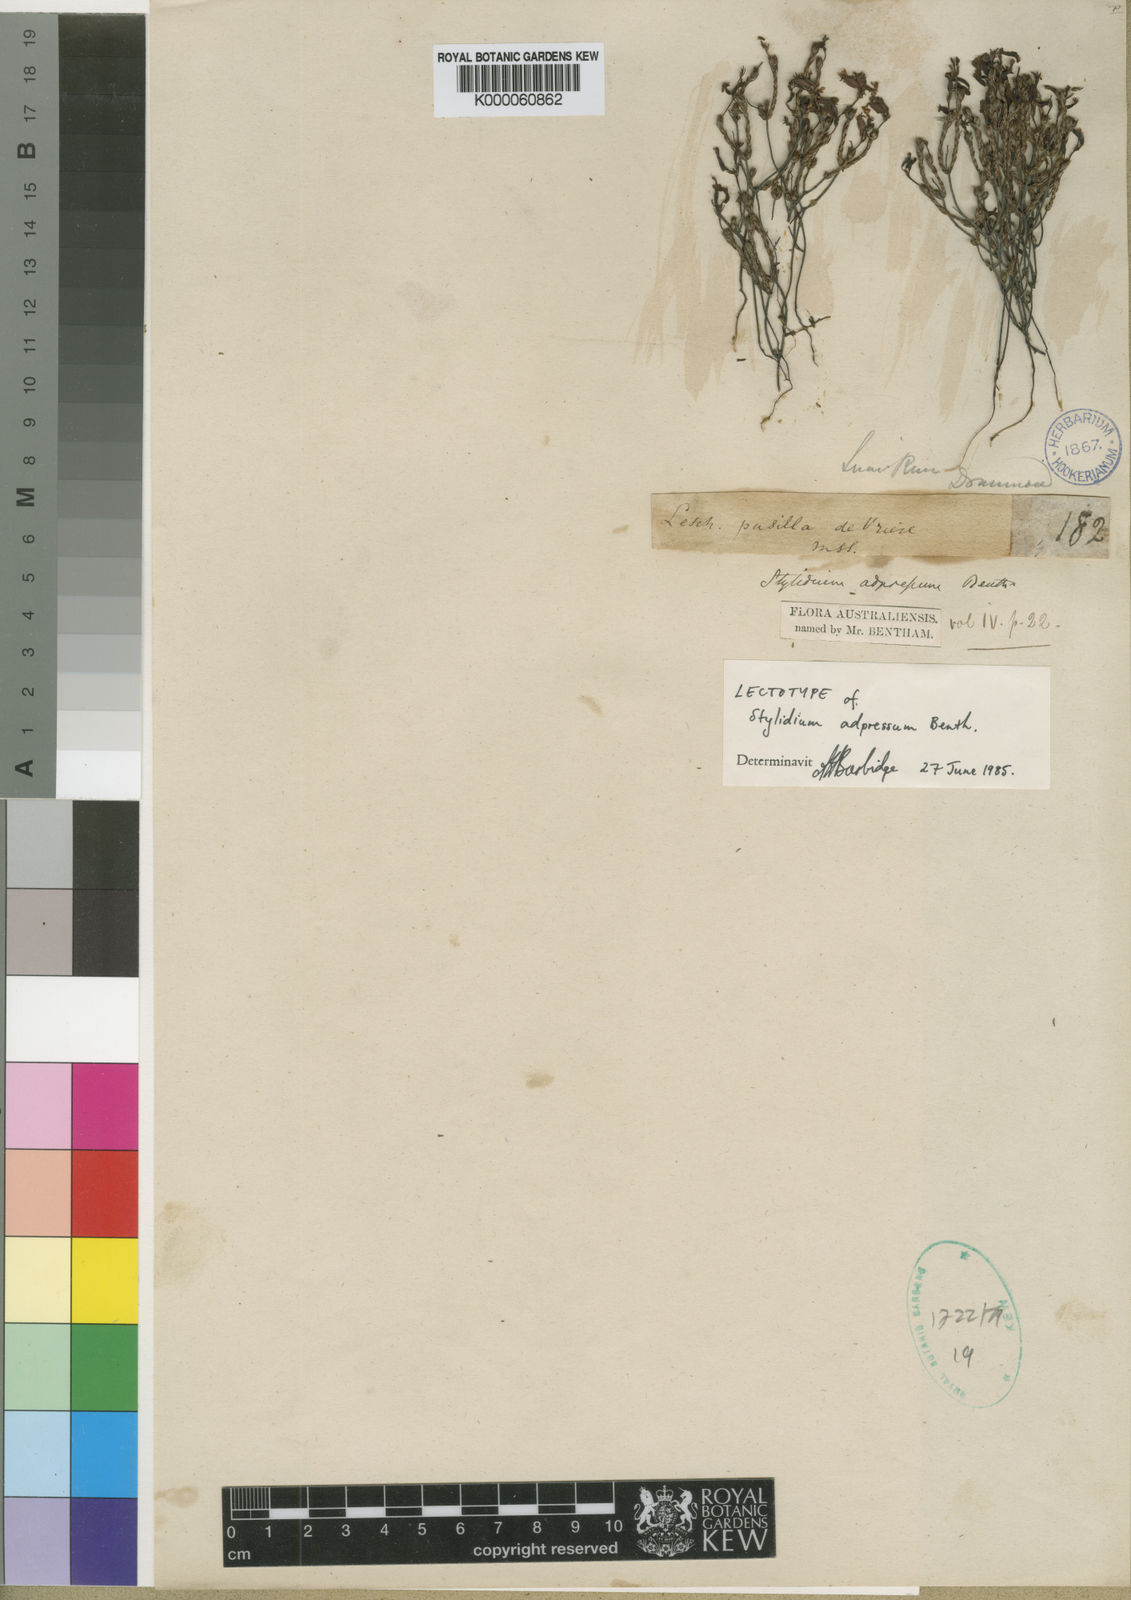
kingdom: Plantae
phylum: Tracheophyta
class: Magnoliopsida
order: Asterales
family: Stylidiaceae
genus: Stylidium
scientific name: Stylidium adpressum
